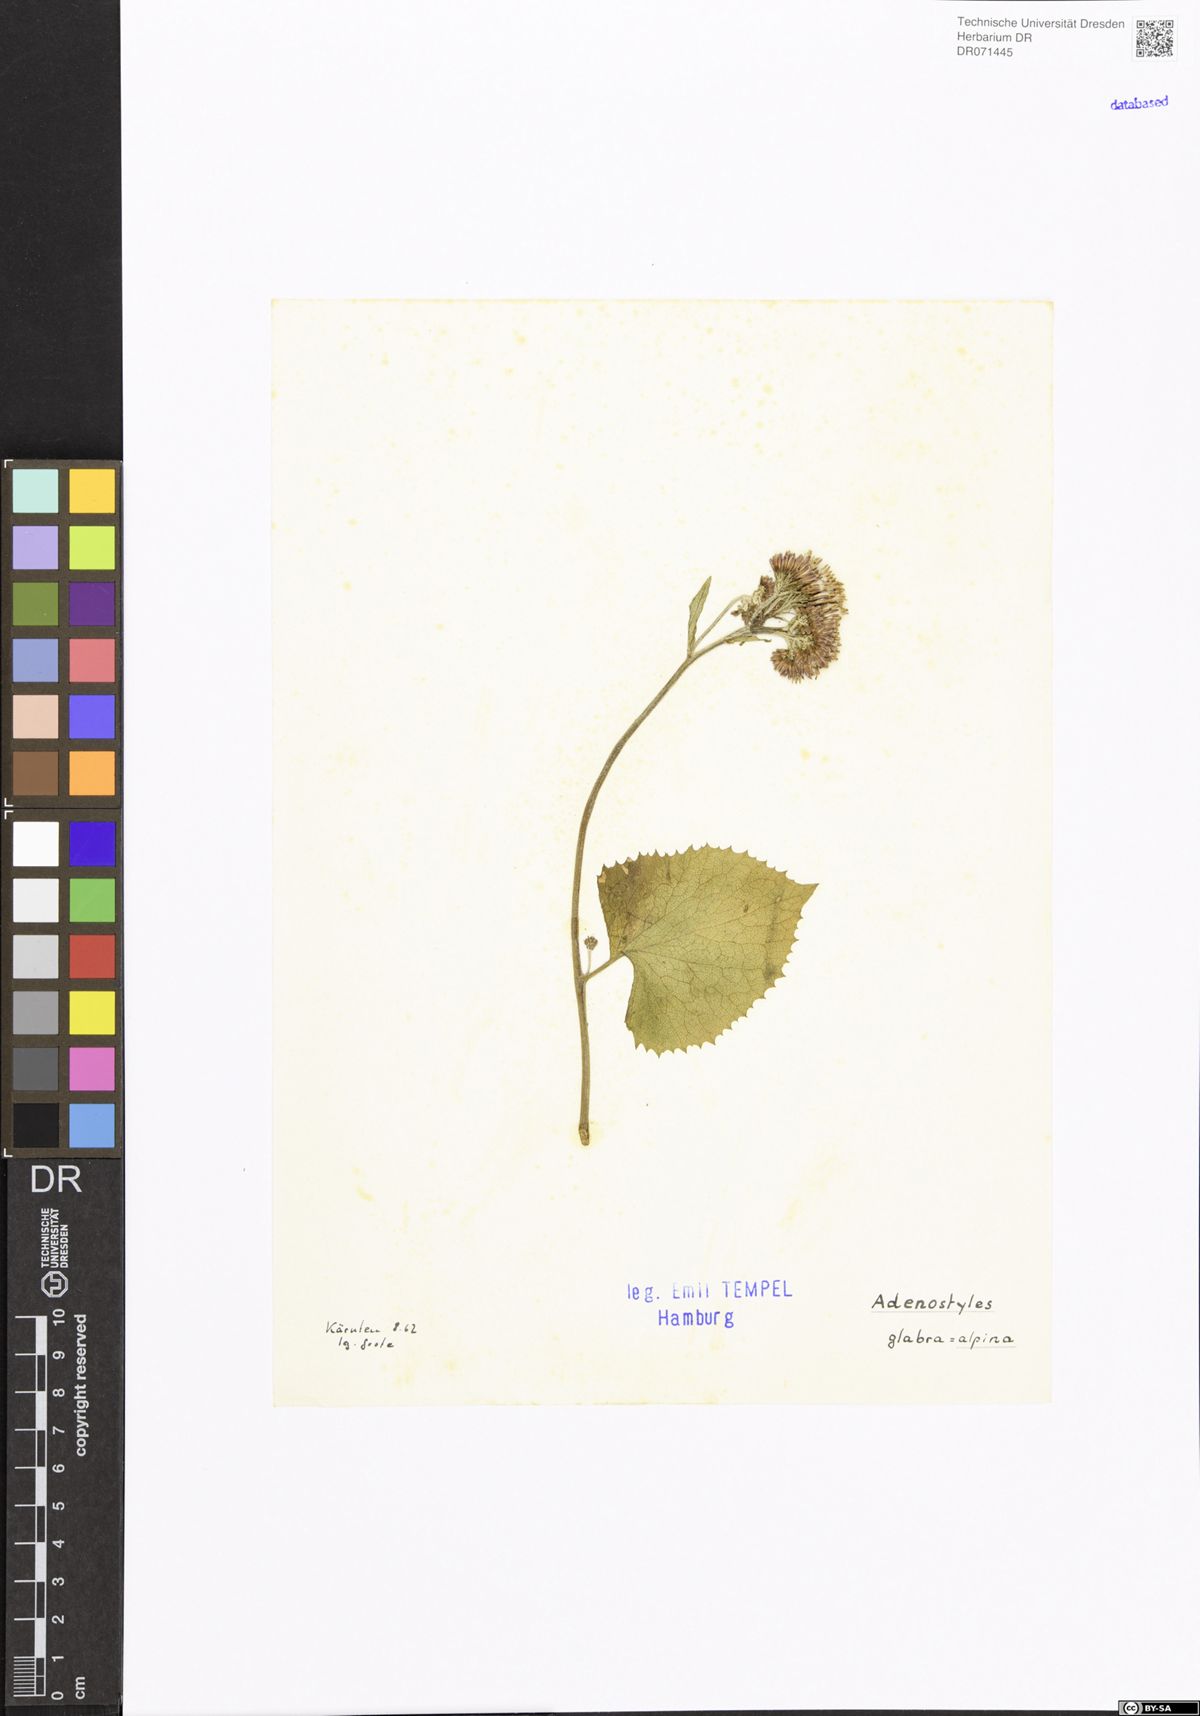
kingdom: Plantae
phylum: Tracheophyta
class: Magnoliopsida
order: Asterales
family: Asteraceae
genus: Adenostyles
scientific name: Adenostyles alpina
